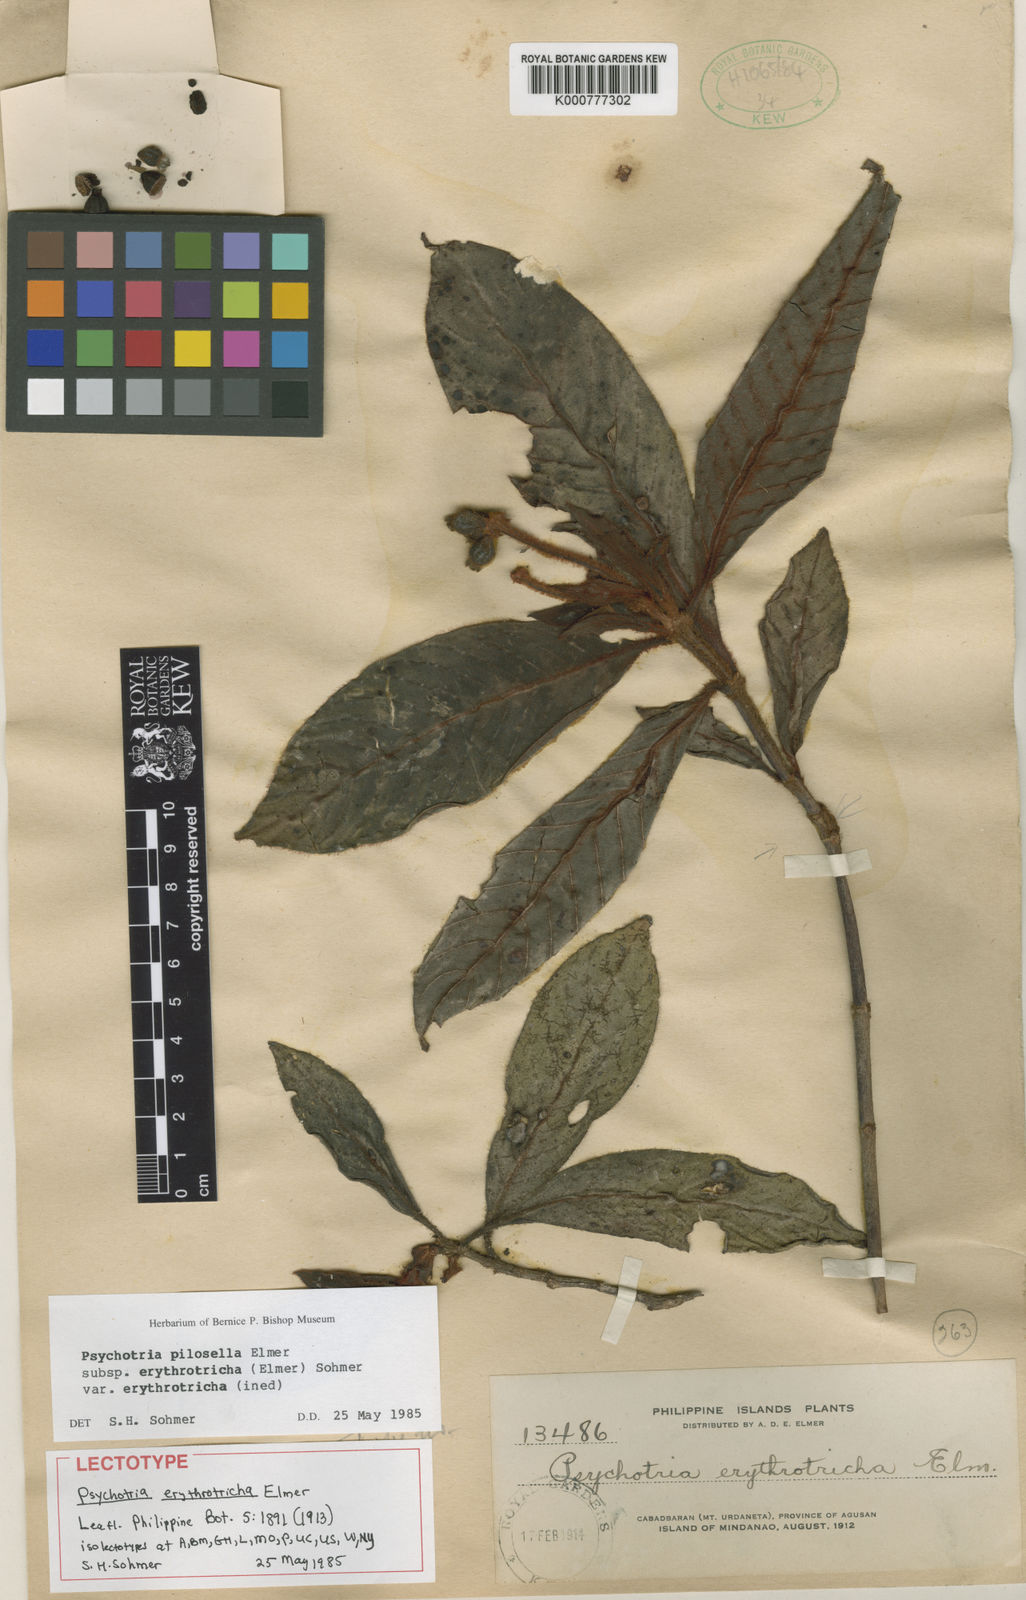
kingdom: Plantae
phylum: Tracheophyta
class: Magnoliopsida
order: Gentianales
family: Rubiaceae
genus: Psychotria
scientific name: Psychotria pilosella
